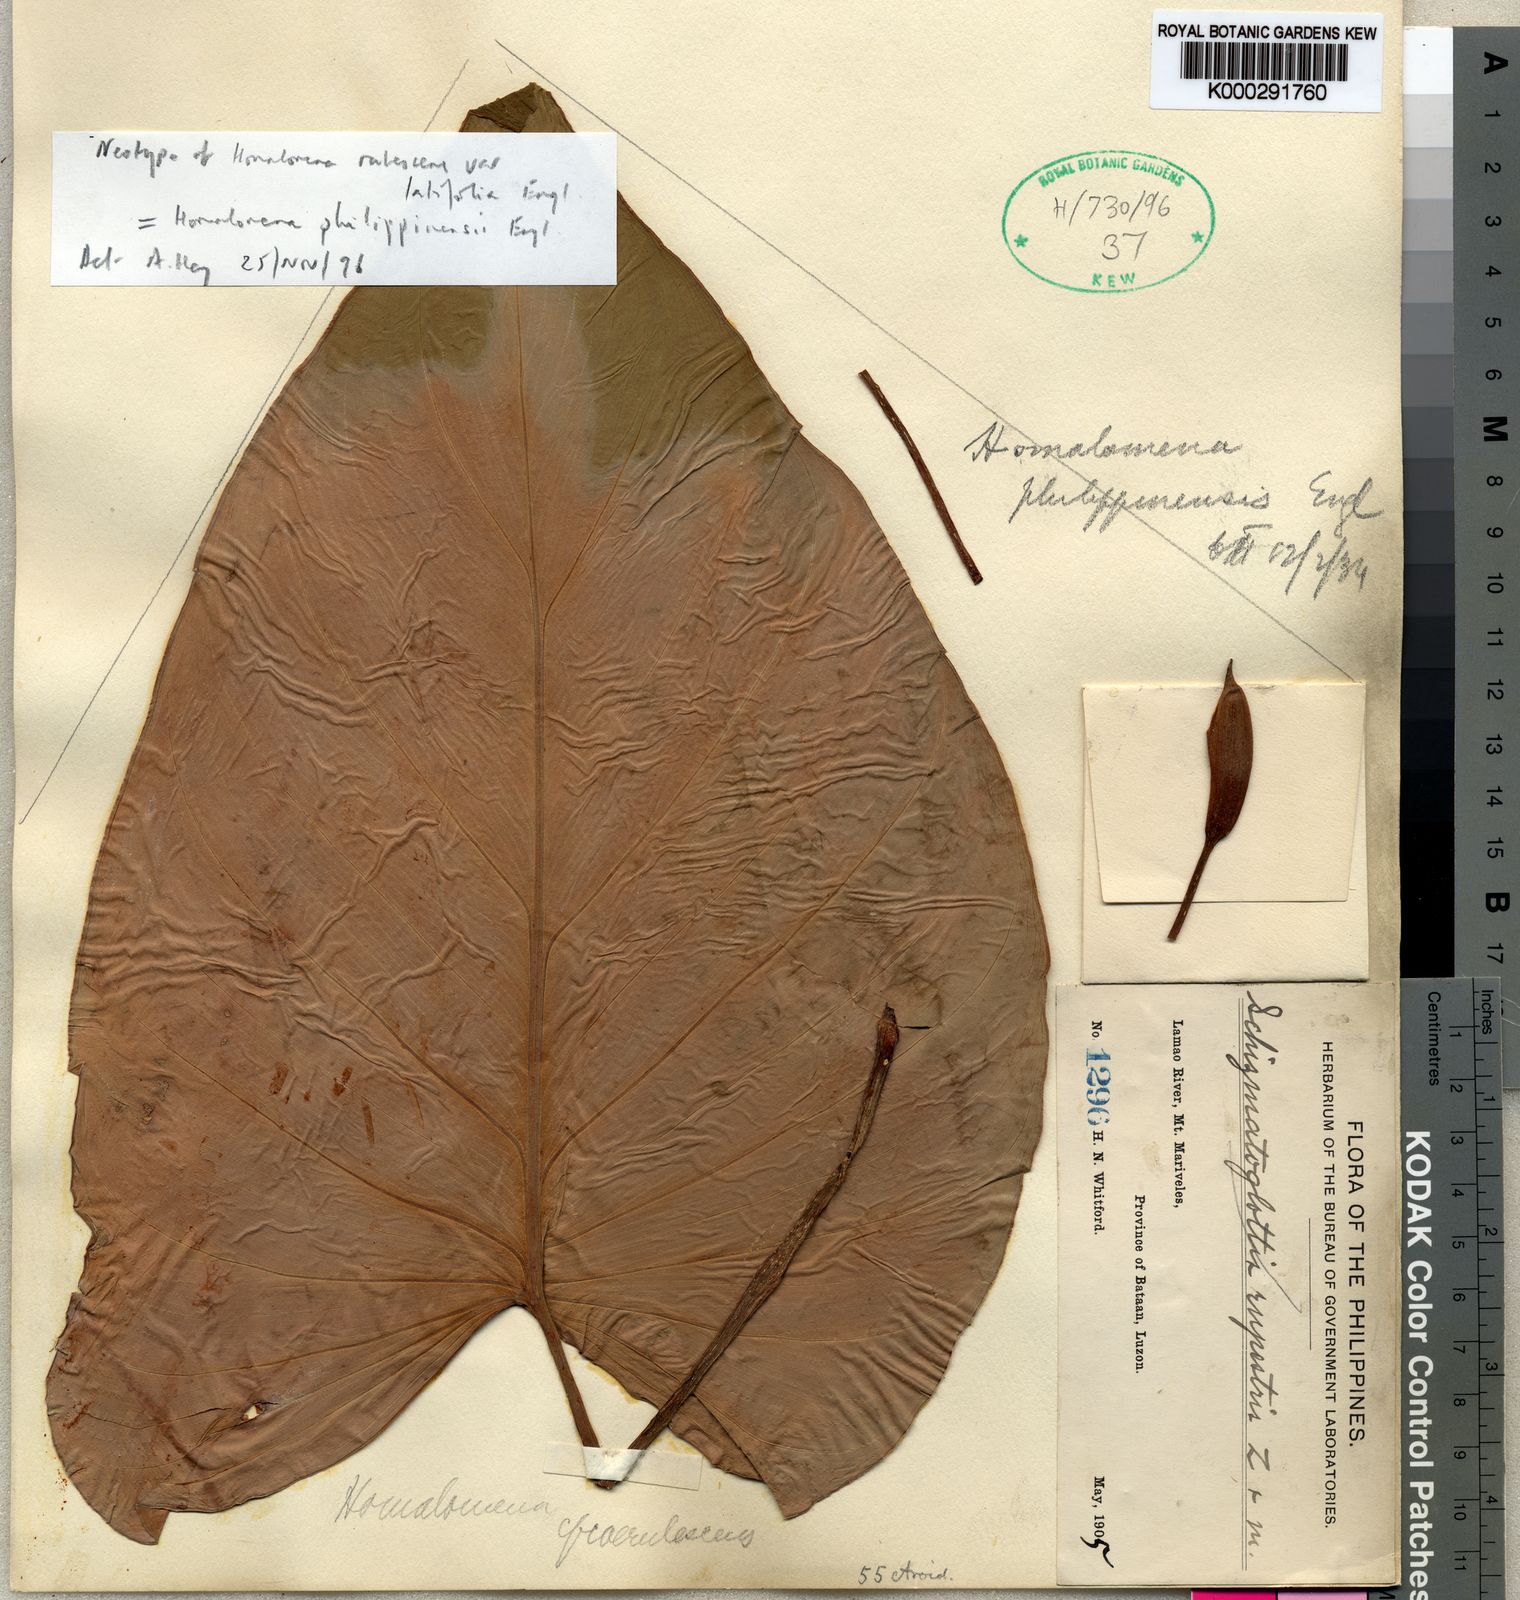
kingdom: Plantae
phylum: Tracheophyta
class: Liliopsida
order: Alismatales
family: Araceae
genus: Homalomena
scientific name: Homalomena philippinensis
